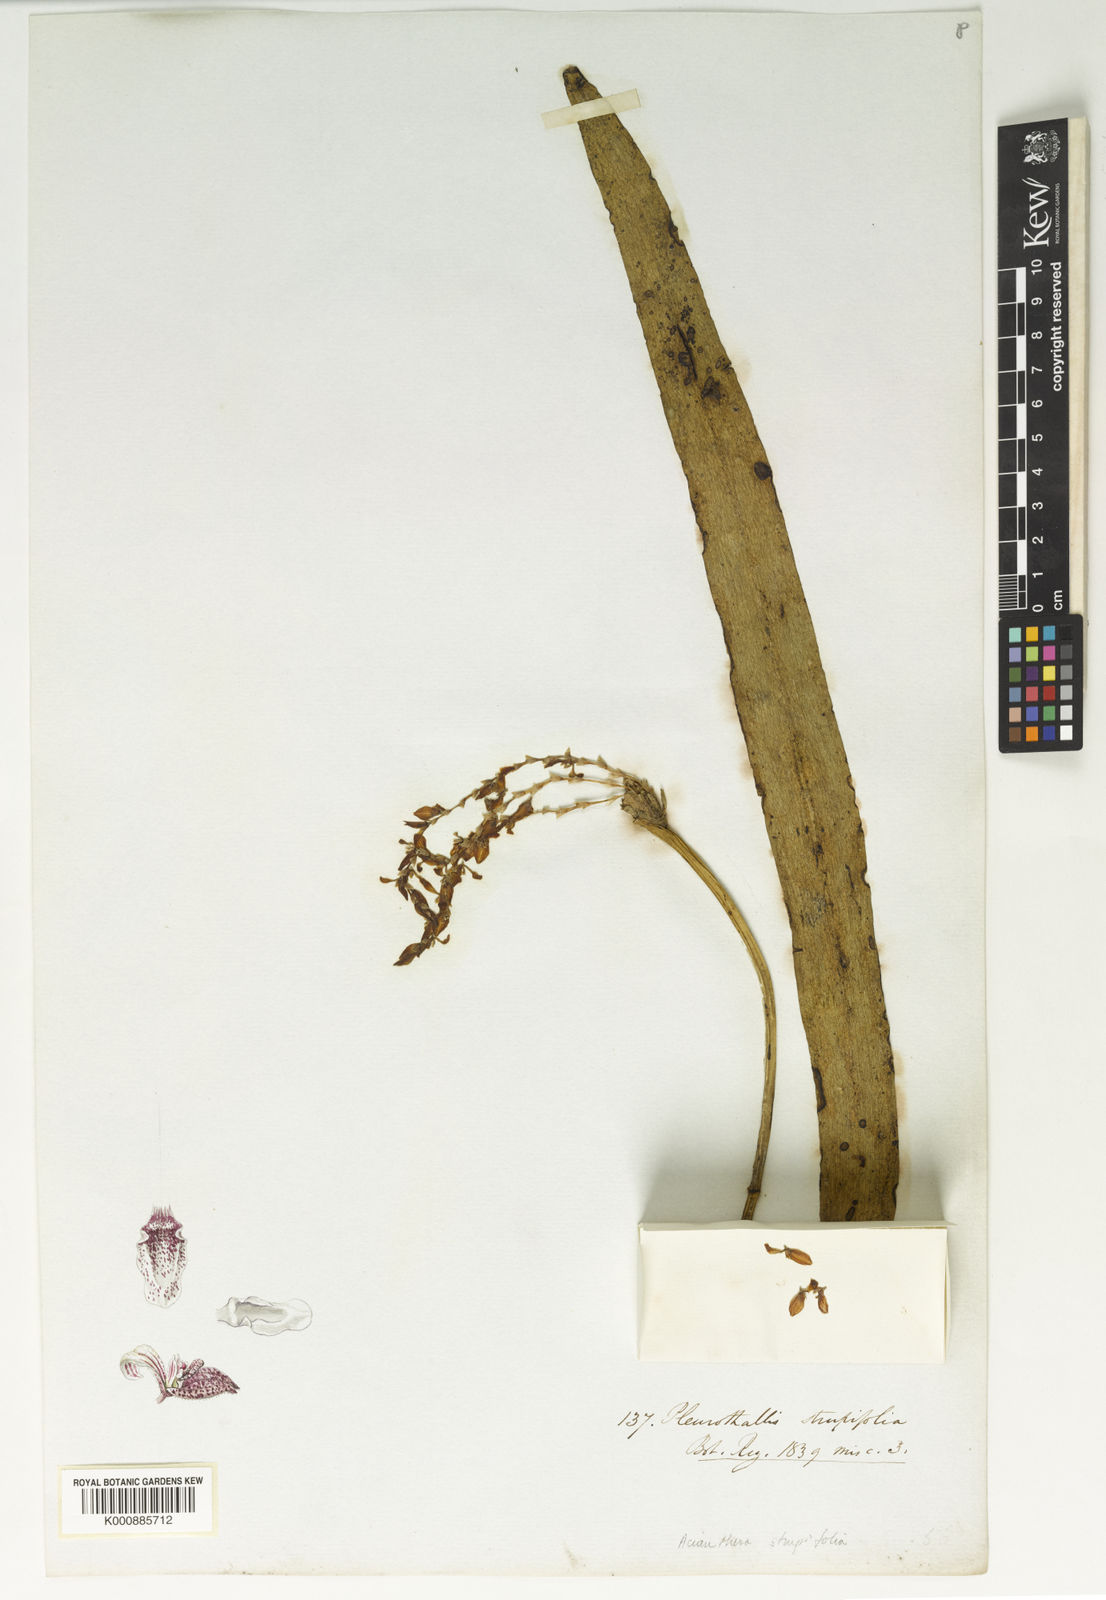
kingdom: Plantae
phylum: Tracheophyta
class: Liliopsida
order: Asparagales
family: Orchidaceae
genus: Acianthera
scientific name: Acianthera strupifolia
